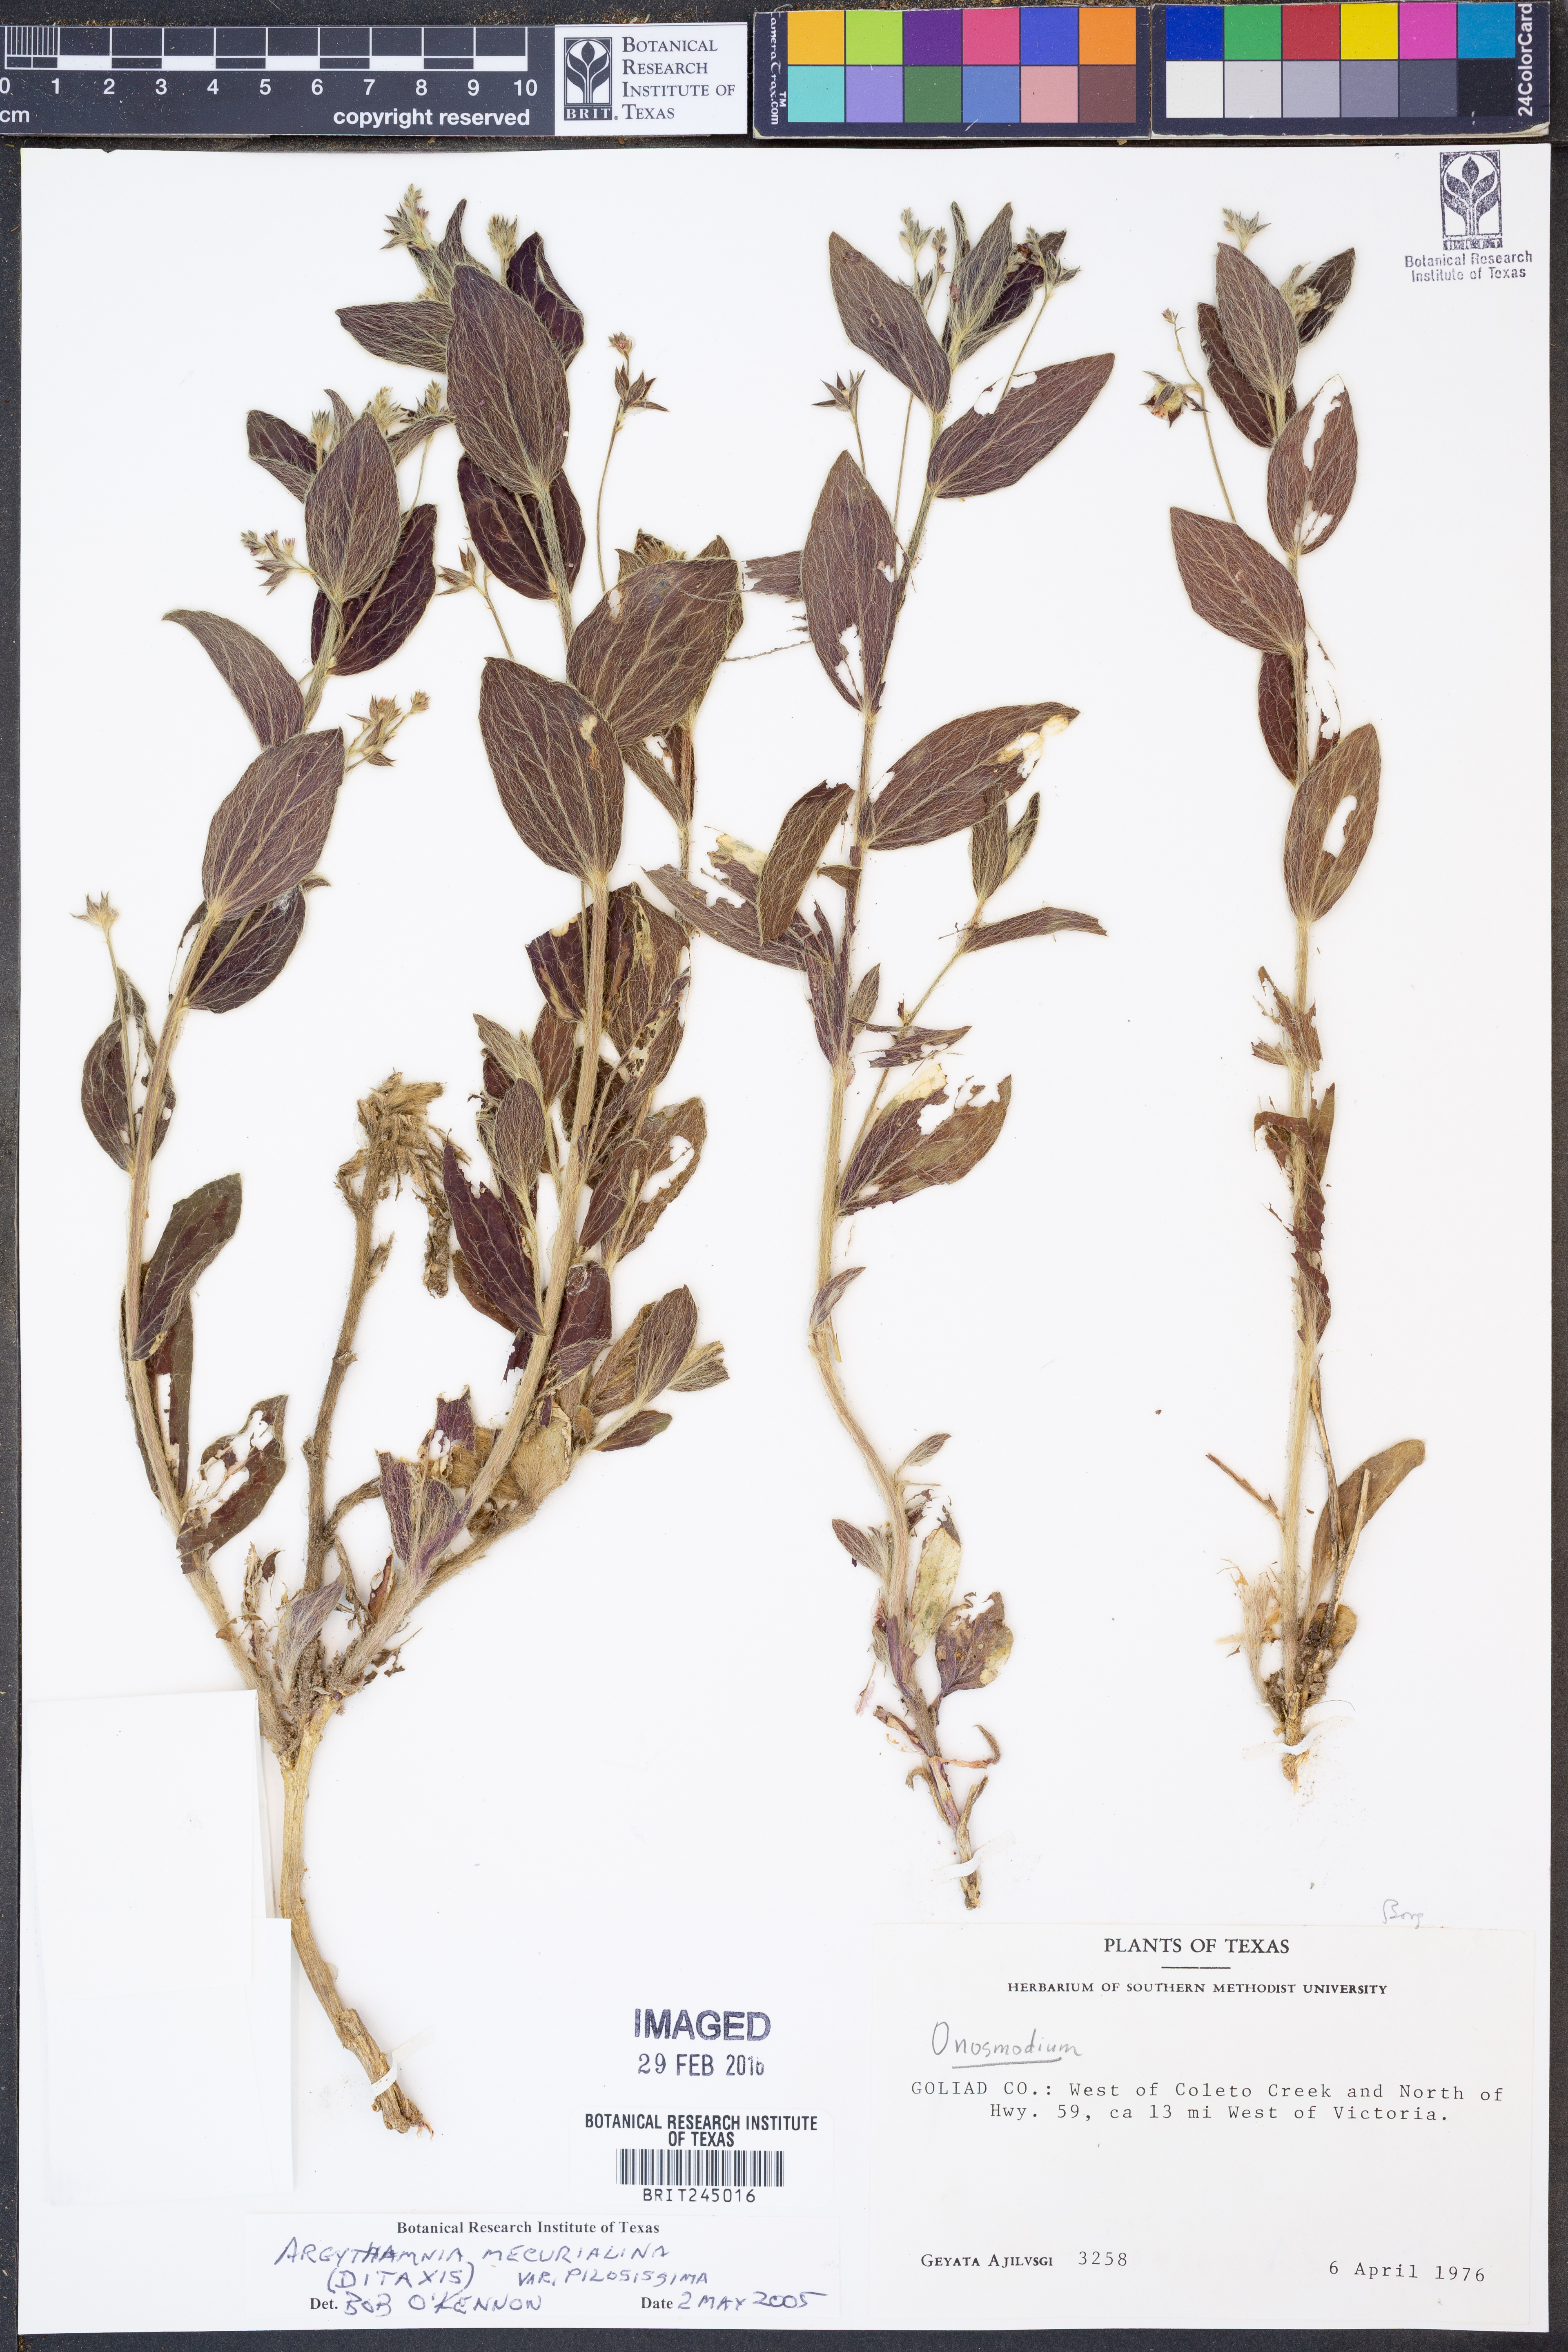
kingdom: Plantae
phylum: Tracheophyta
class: Magnoliopsida
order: Malpighiales
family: Euphorbiaceae
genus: Ditaxis
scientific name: Ditaxis pilosissima
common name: Tall silverbush
